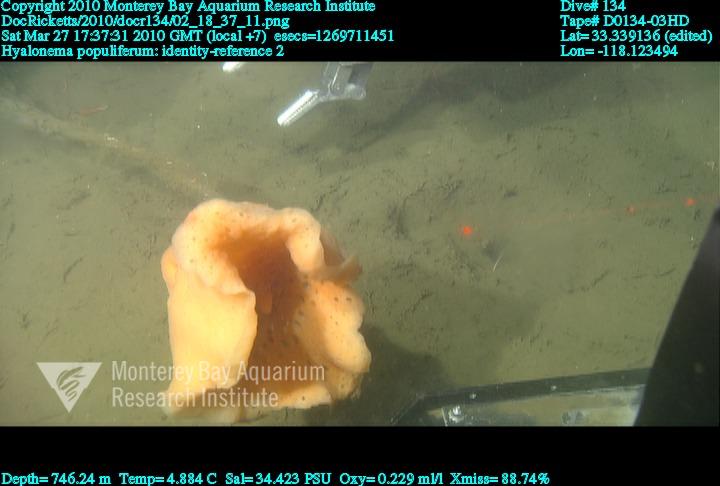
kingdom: Animalia
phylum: Porifera
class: Hexactinellida
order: Amphidiscosida
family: Hyalonematidae
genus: Hyalonema
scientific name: Hyalonema populiferum
